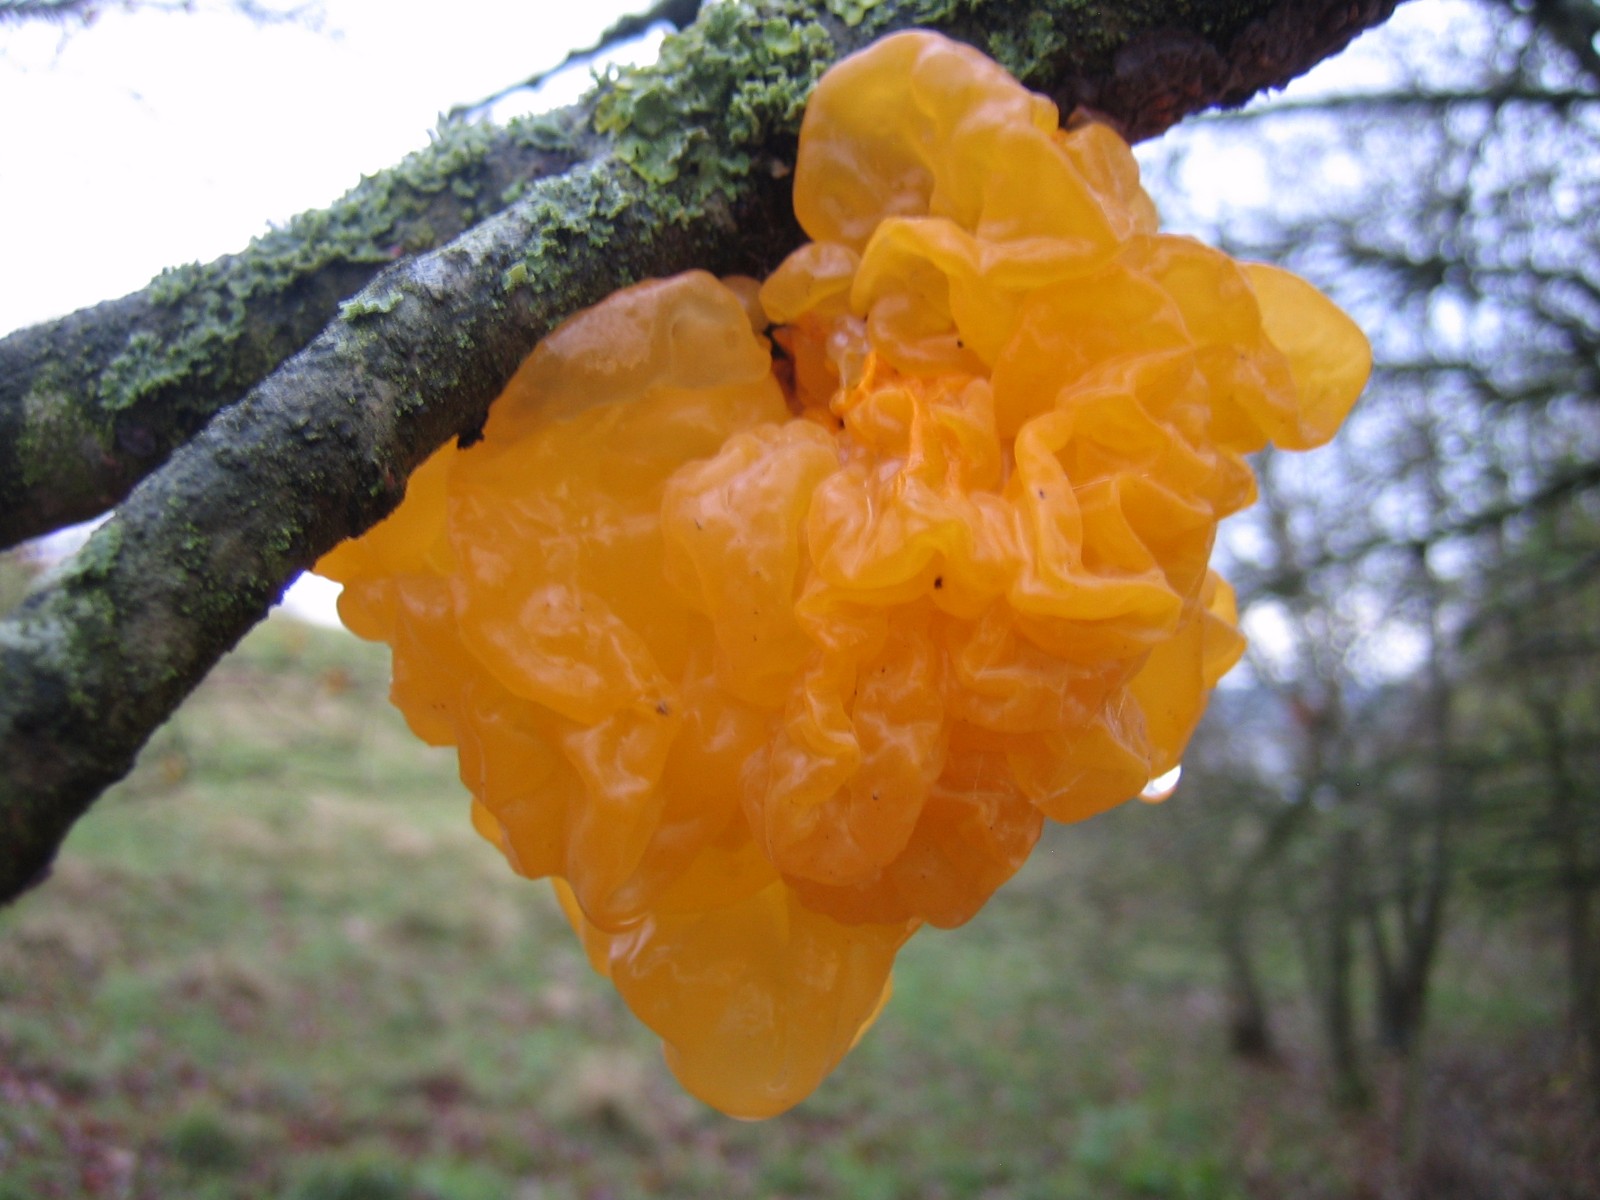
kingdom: Fungi
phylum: Basidiomycota
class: Tremellomycetes
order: Tremellales
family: Tremellaceae
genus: Tremella
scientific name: Tremella mesenterica
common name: gul bævresvamp
